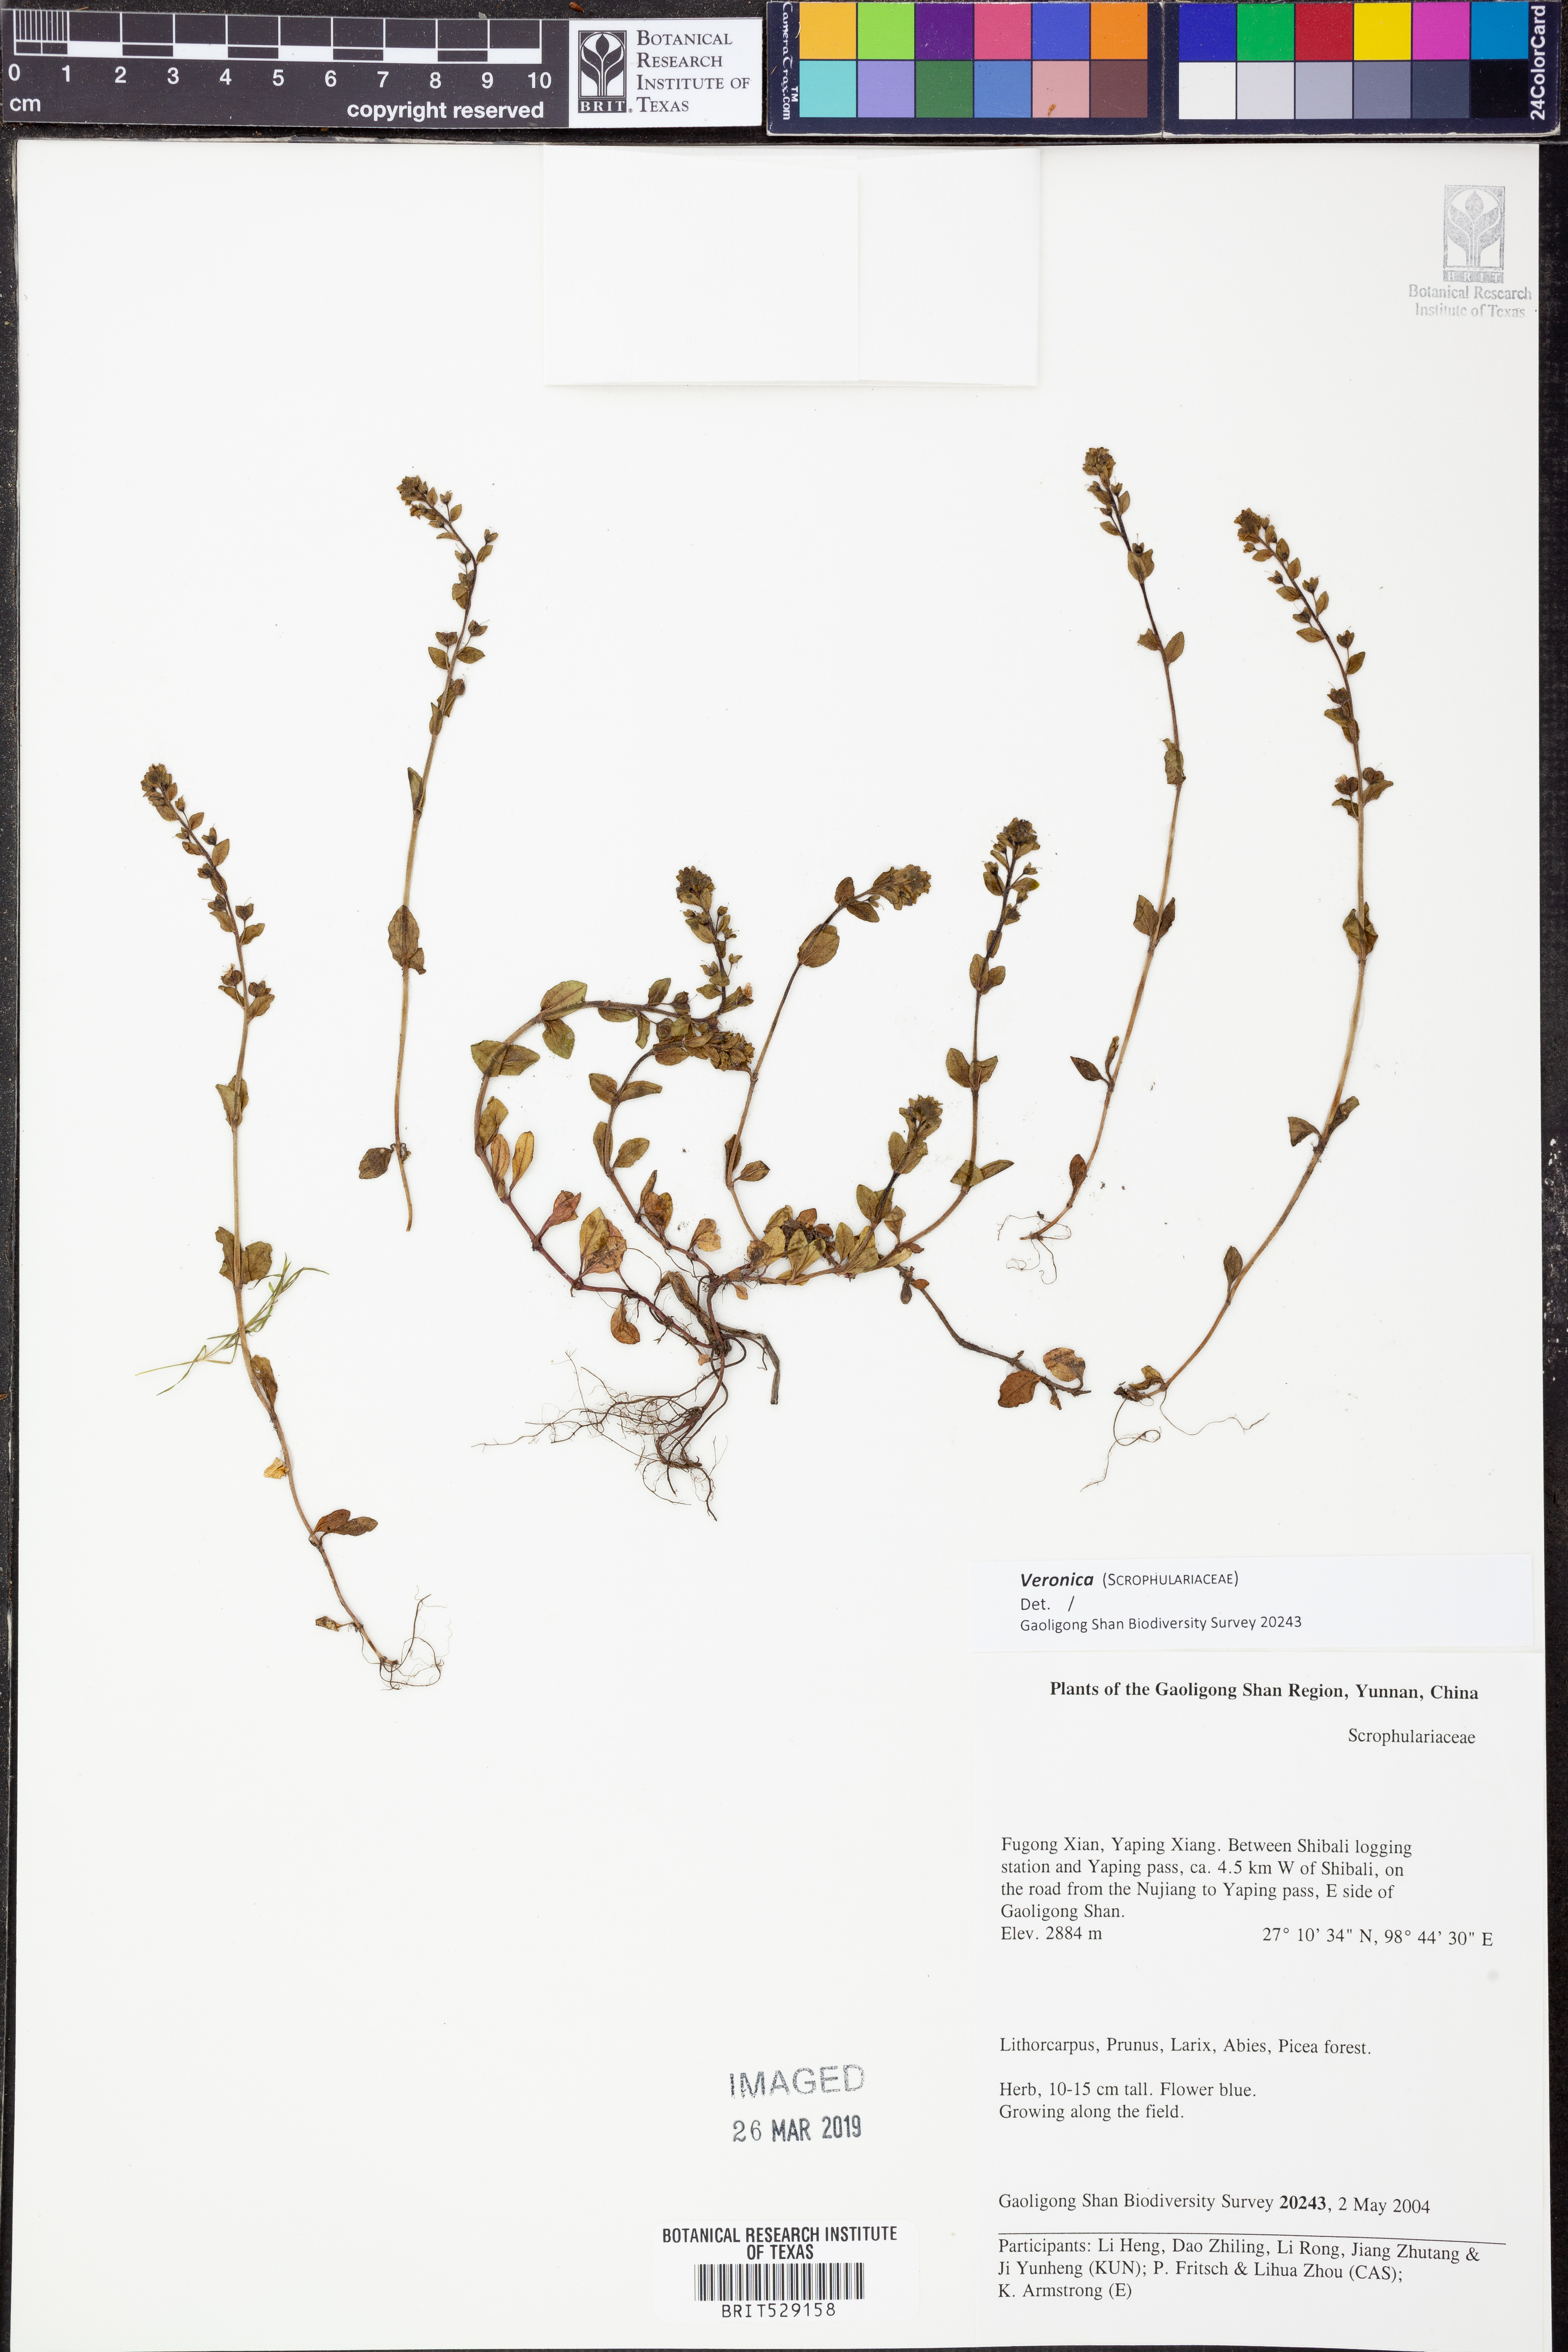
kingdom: Plantae
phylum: Tracheophyta
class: Magnoliopsida
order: Lamiales
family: Plantaginaceae
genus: Veronica
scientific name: Veronica
